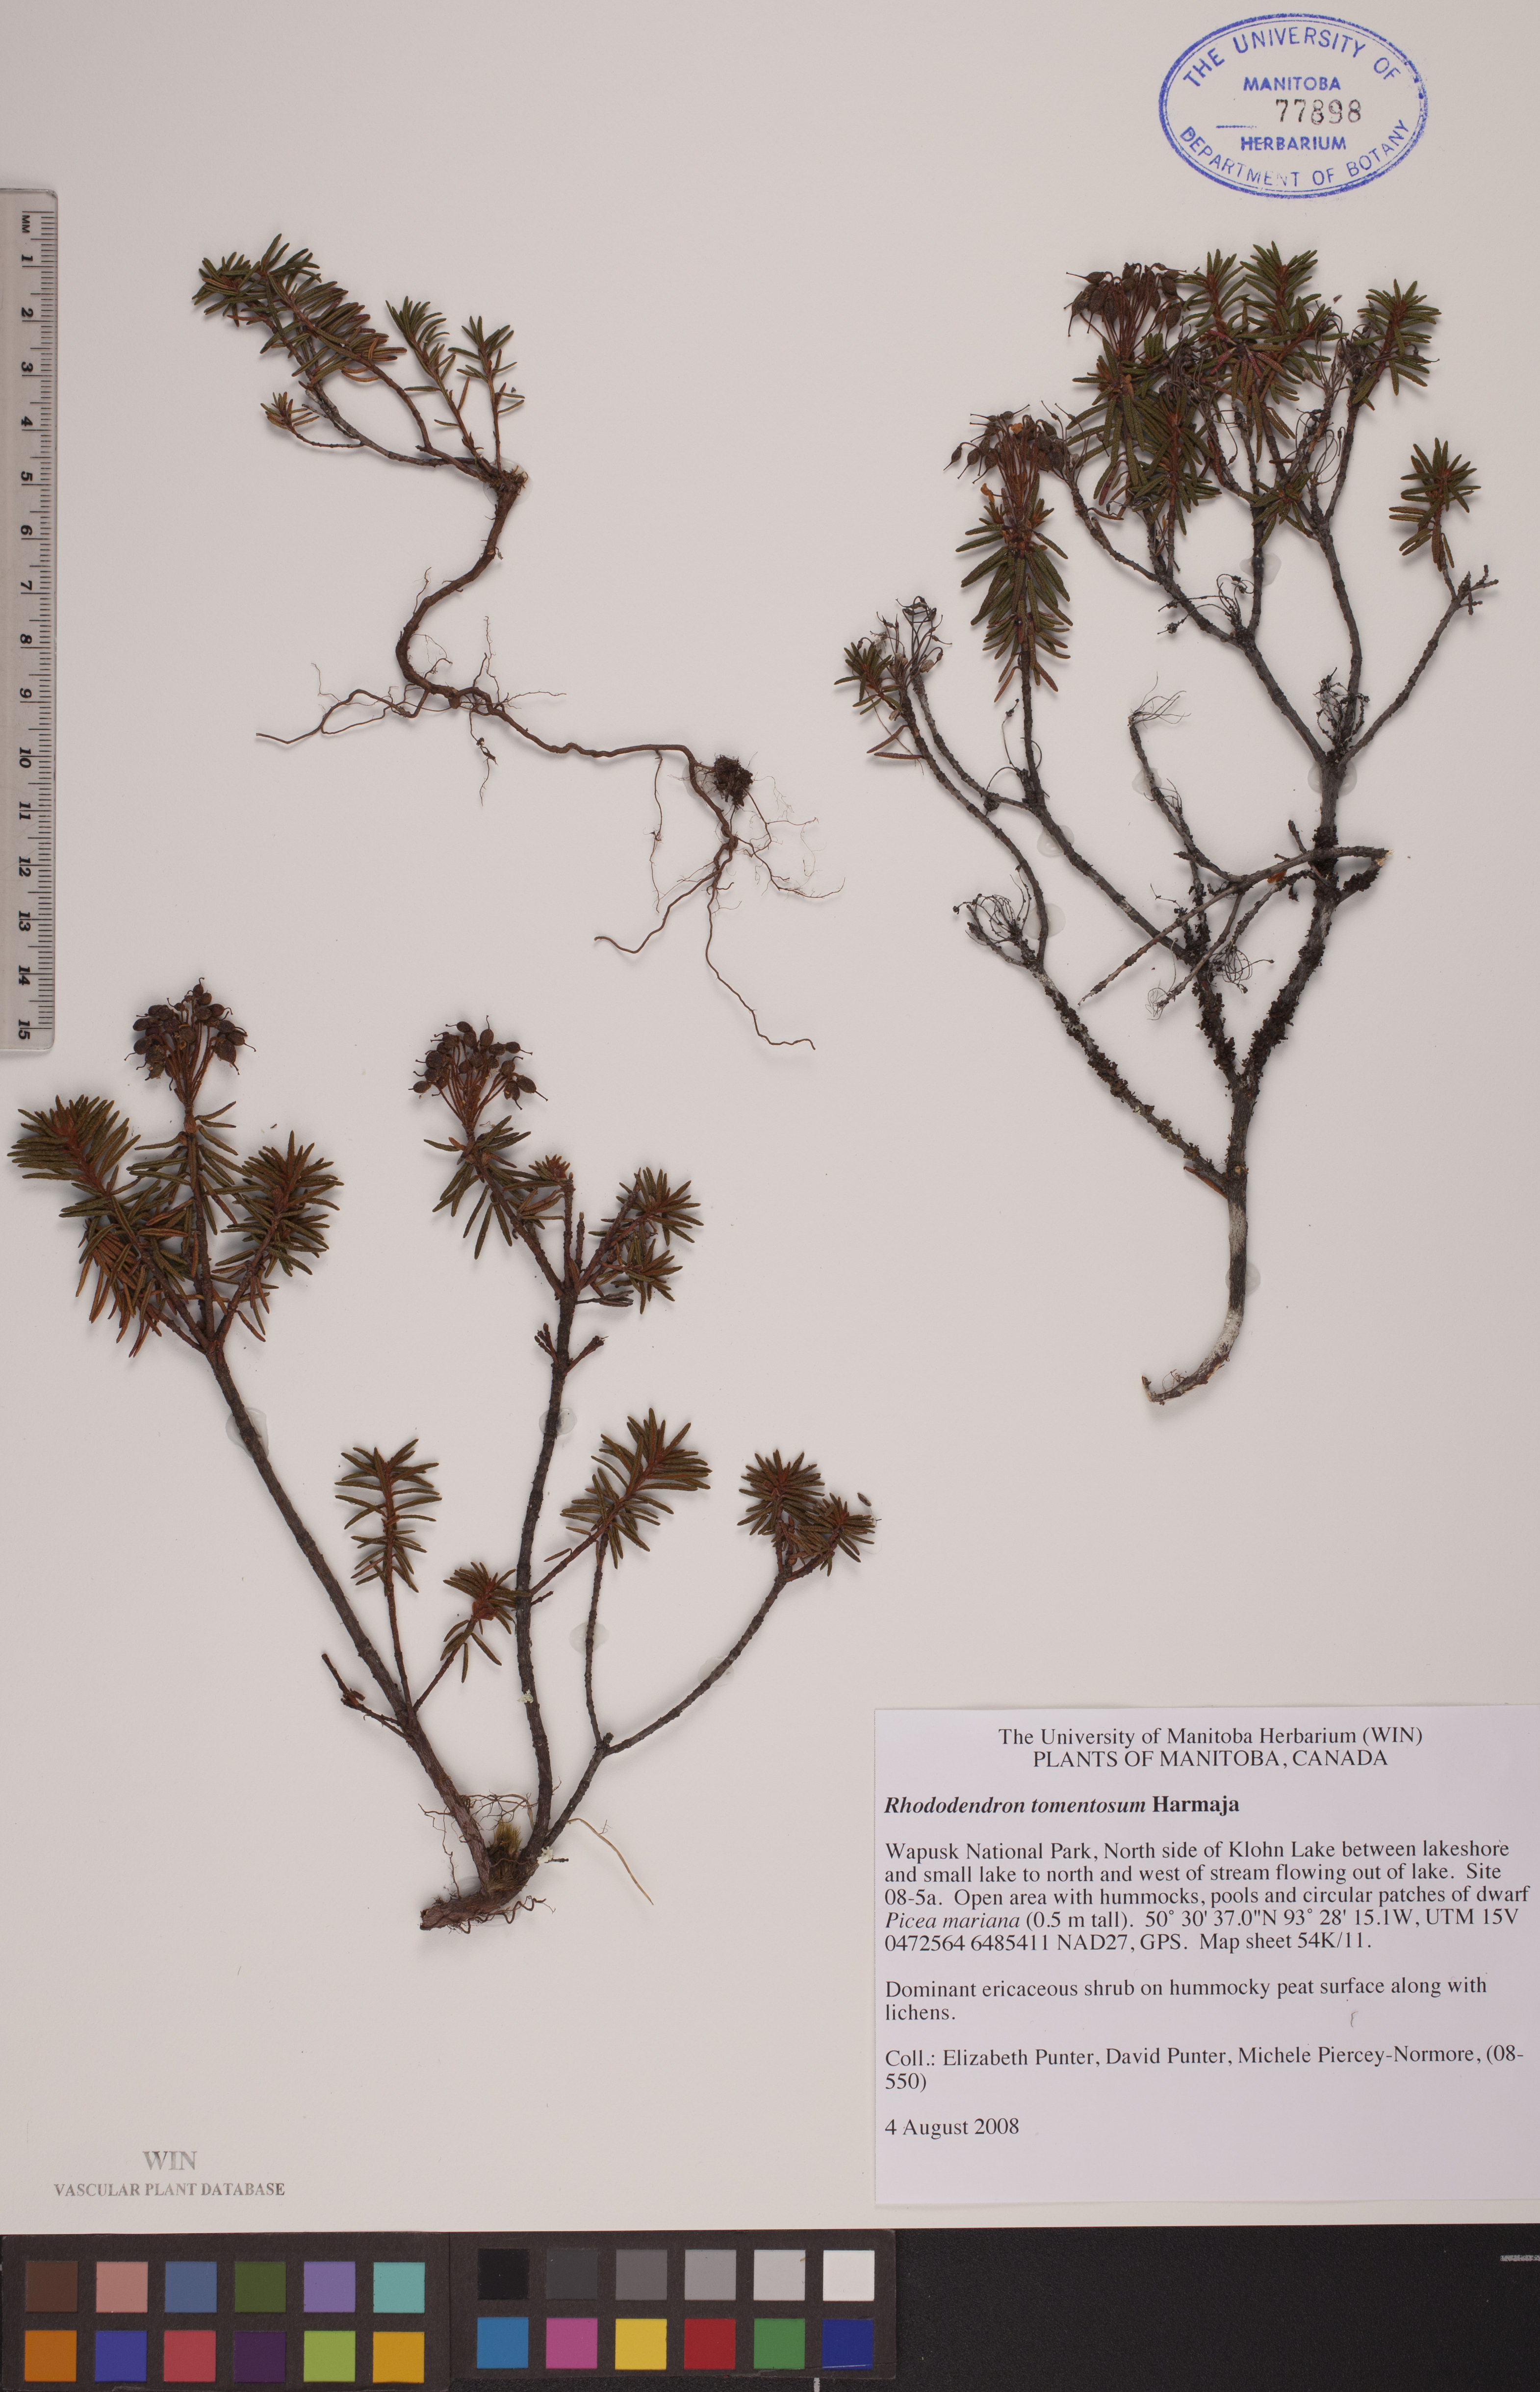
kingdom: Plantae
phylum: Tracheophyta
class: Magnoliopsida
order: Ericales
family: Ericaceae
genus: Rhododendron
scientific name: Rhododendron tomentosum
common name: Marsh labrador tea
